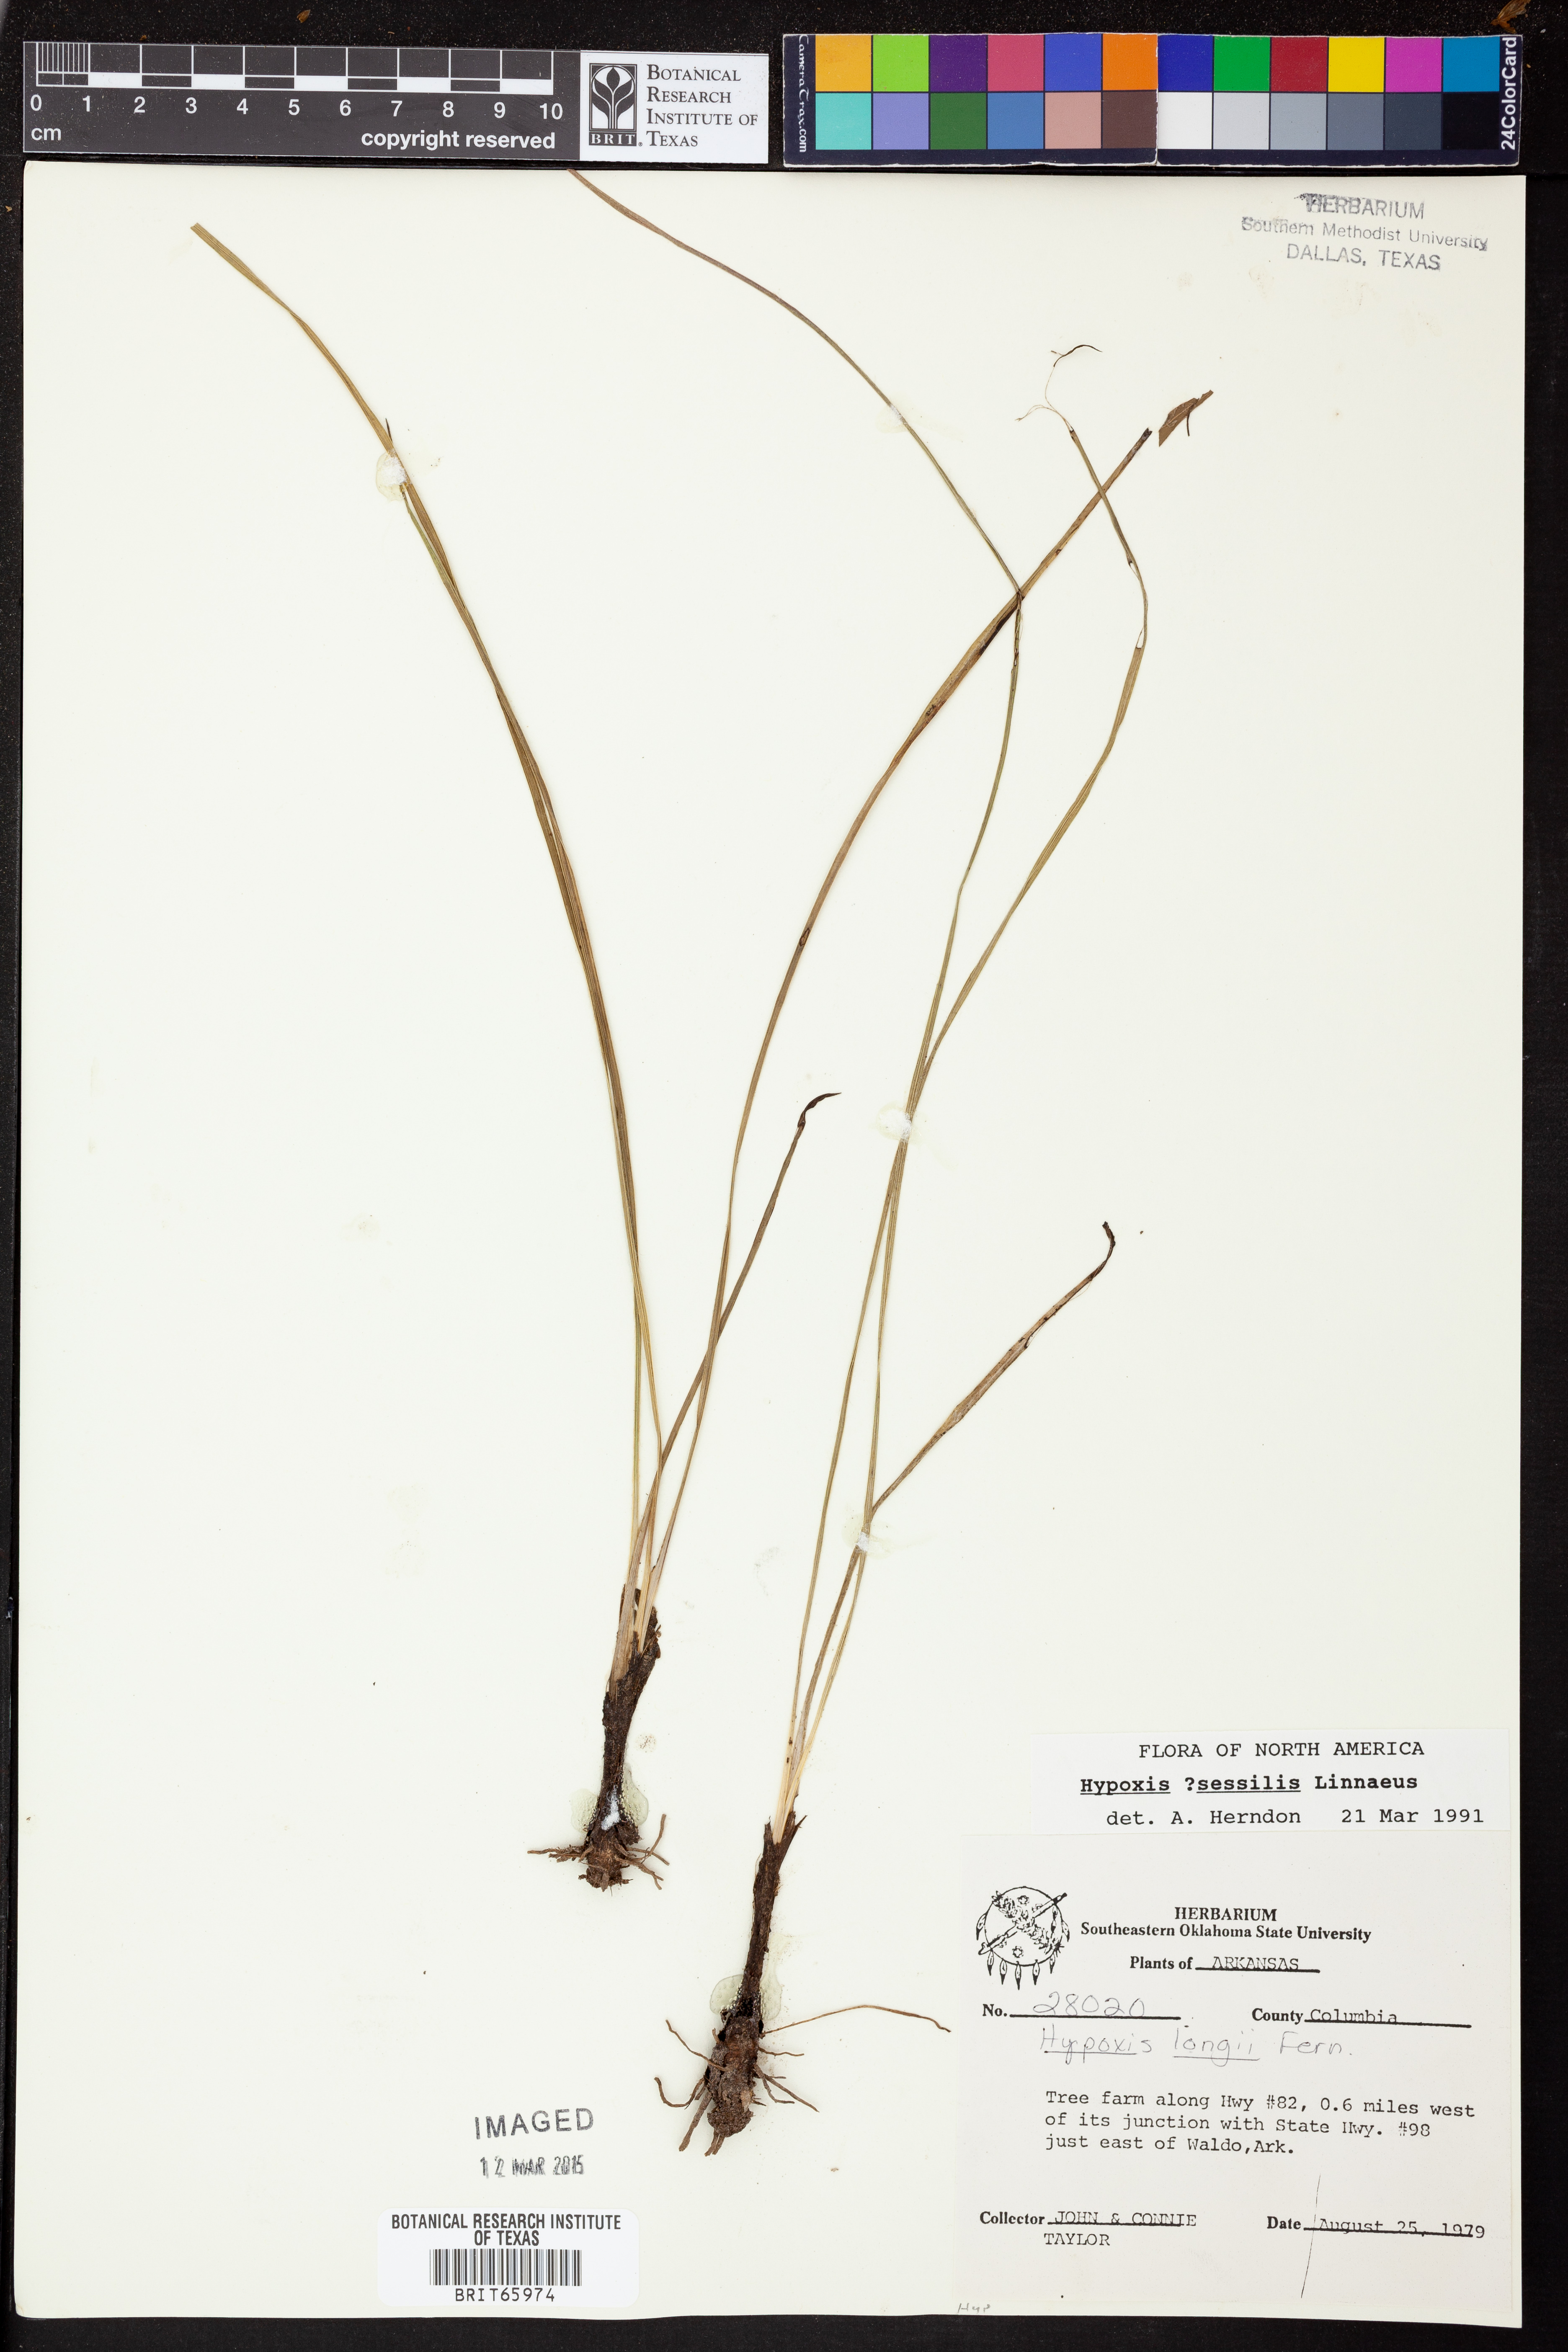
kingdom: Plantae
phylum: Tracheophyta
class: Liliopsida
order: Asparagales
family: Hypoxidaceae
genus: Hypoxis
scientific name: Hypoxis sessilis
